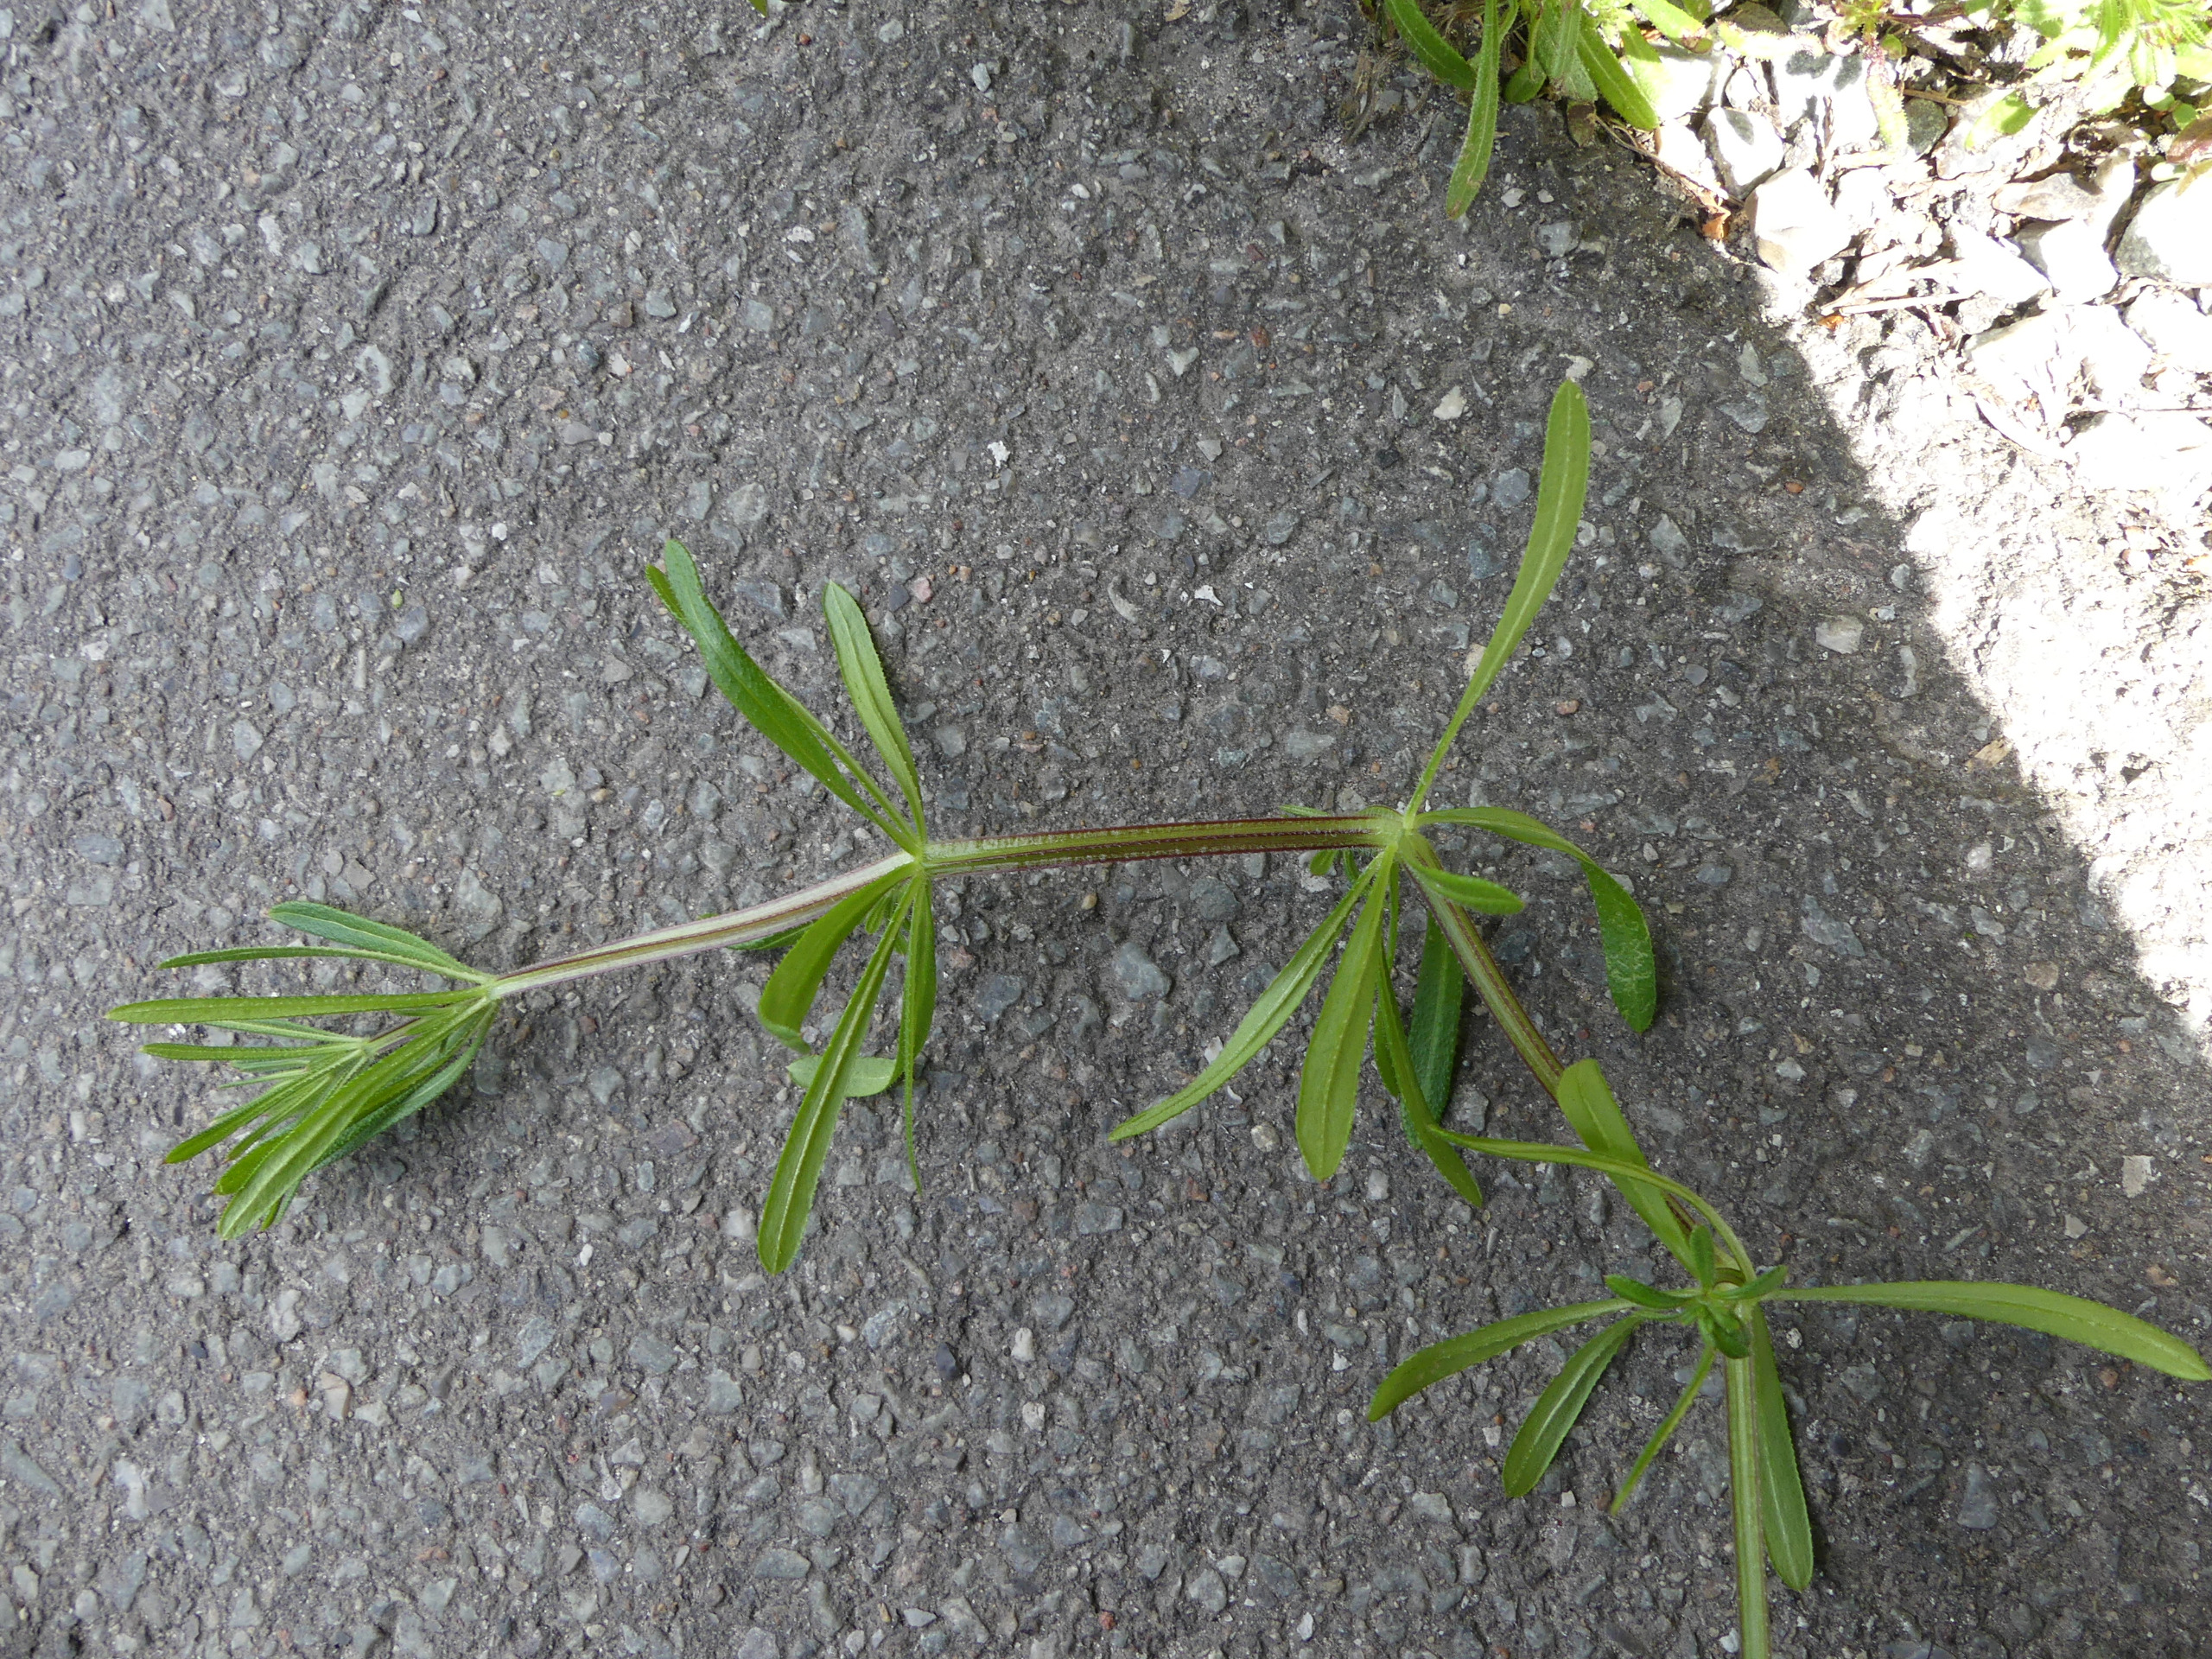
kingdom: Plantae
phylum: Tracheophyta
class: Magnoliopsida
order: Gentianales
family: Rubiaceae
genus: Galium
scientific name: Galium aparine
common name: Burre-snerre
